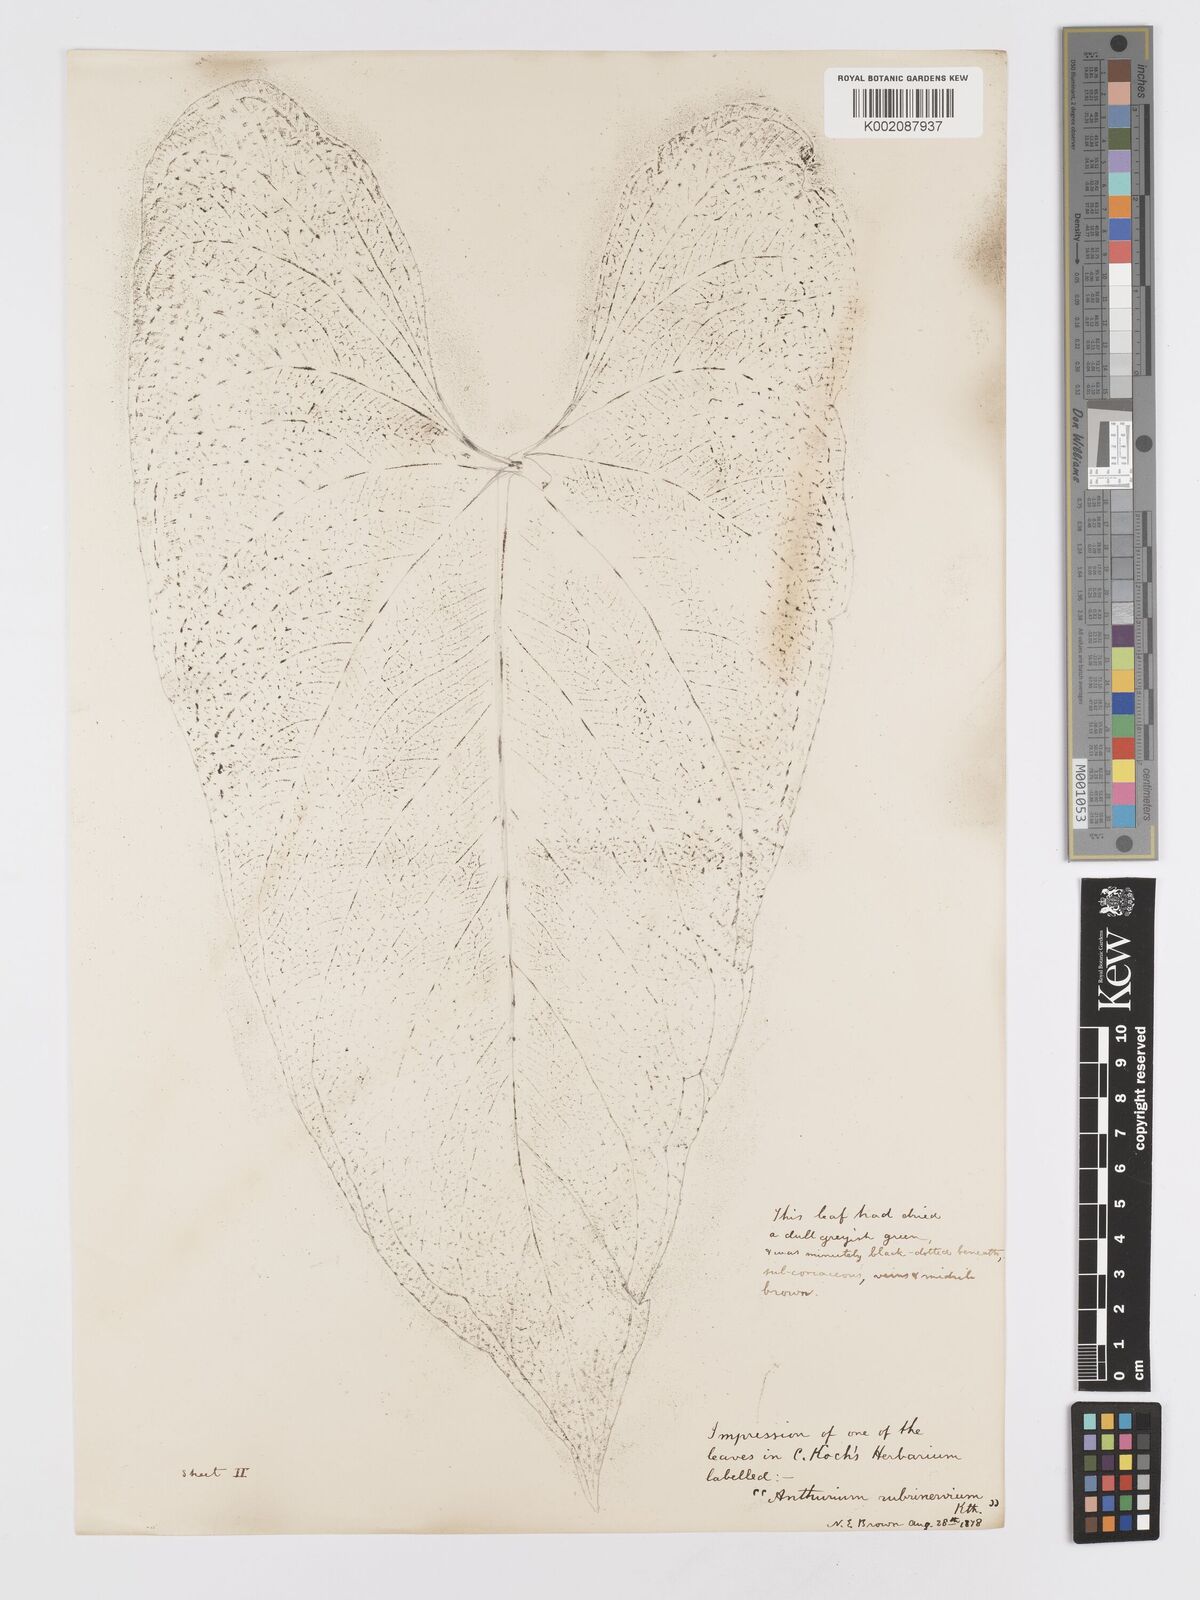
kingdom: Plantae
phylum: Tracheophyta
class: Liliopsida
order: Alismatales
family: Araceae
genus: Anthurium
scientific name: Anthurium sagittatum
